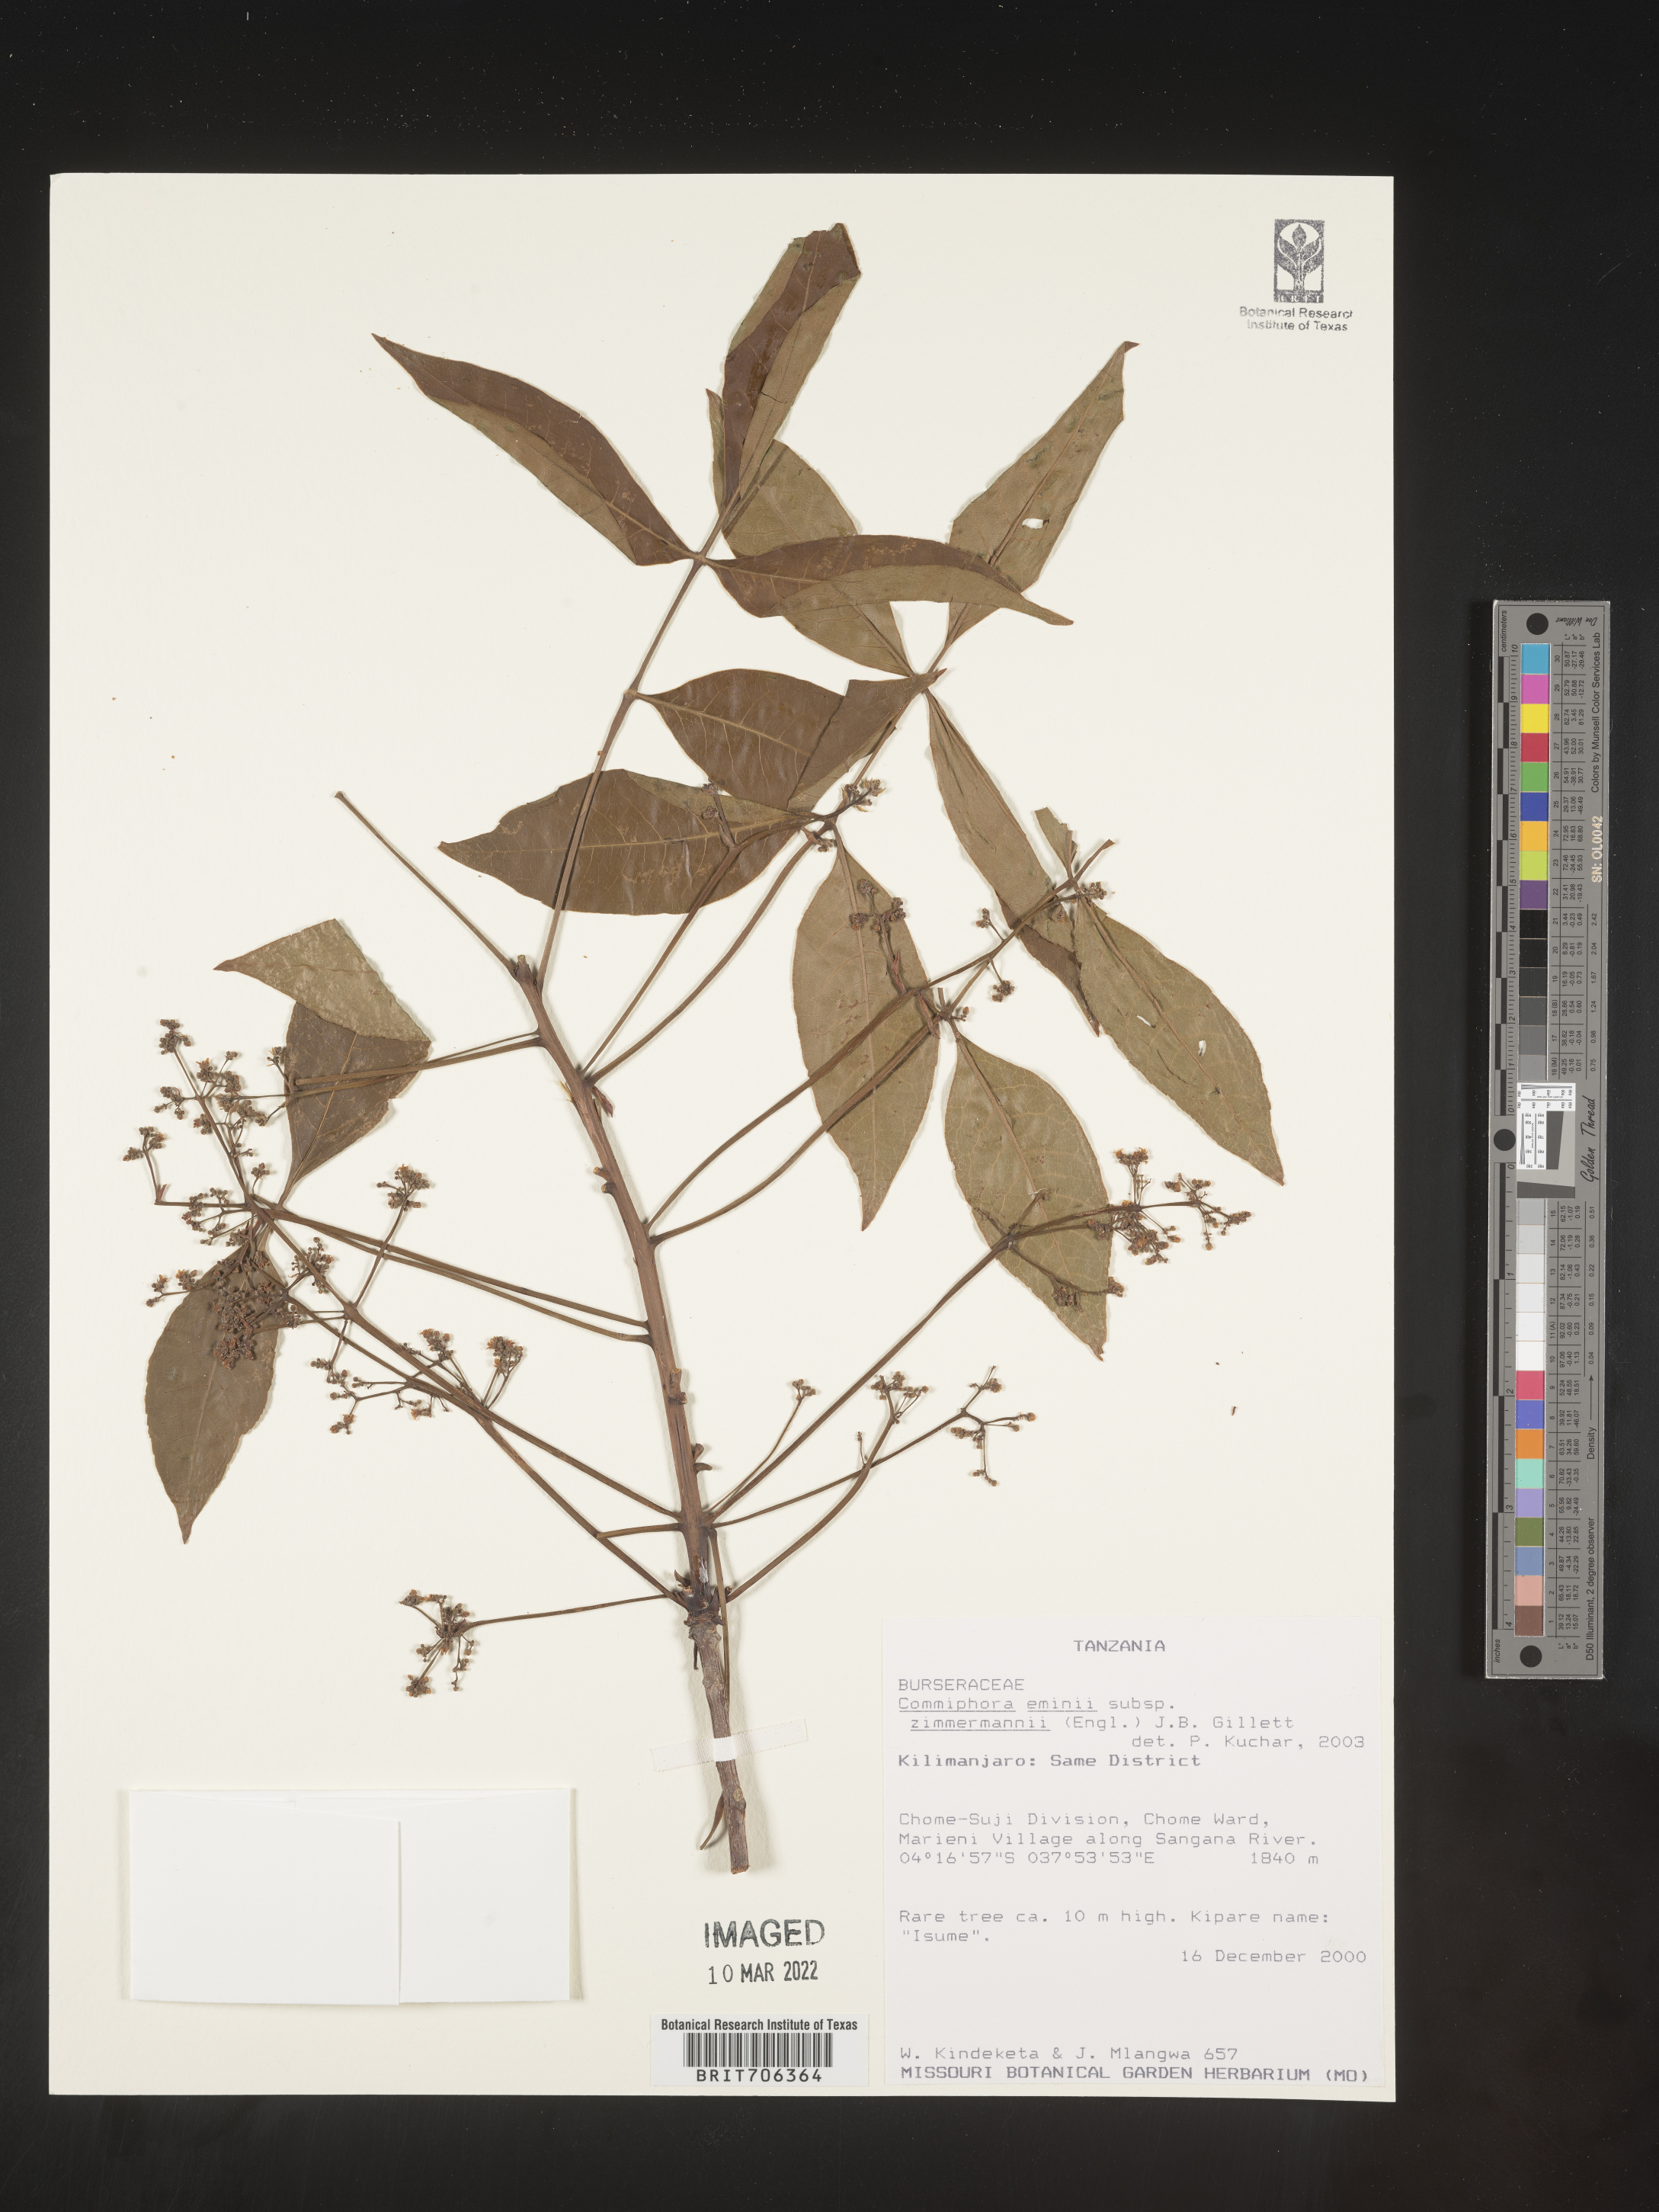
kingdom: Plantae
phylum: Tracheophyta
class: Magnoliopsida
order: Sapindales
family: Burseraceae
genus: Commiphora
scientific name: Commiphora
